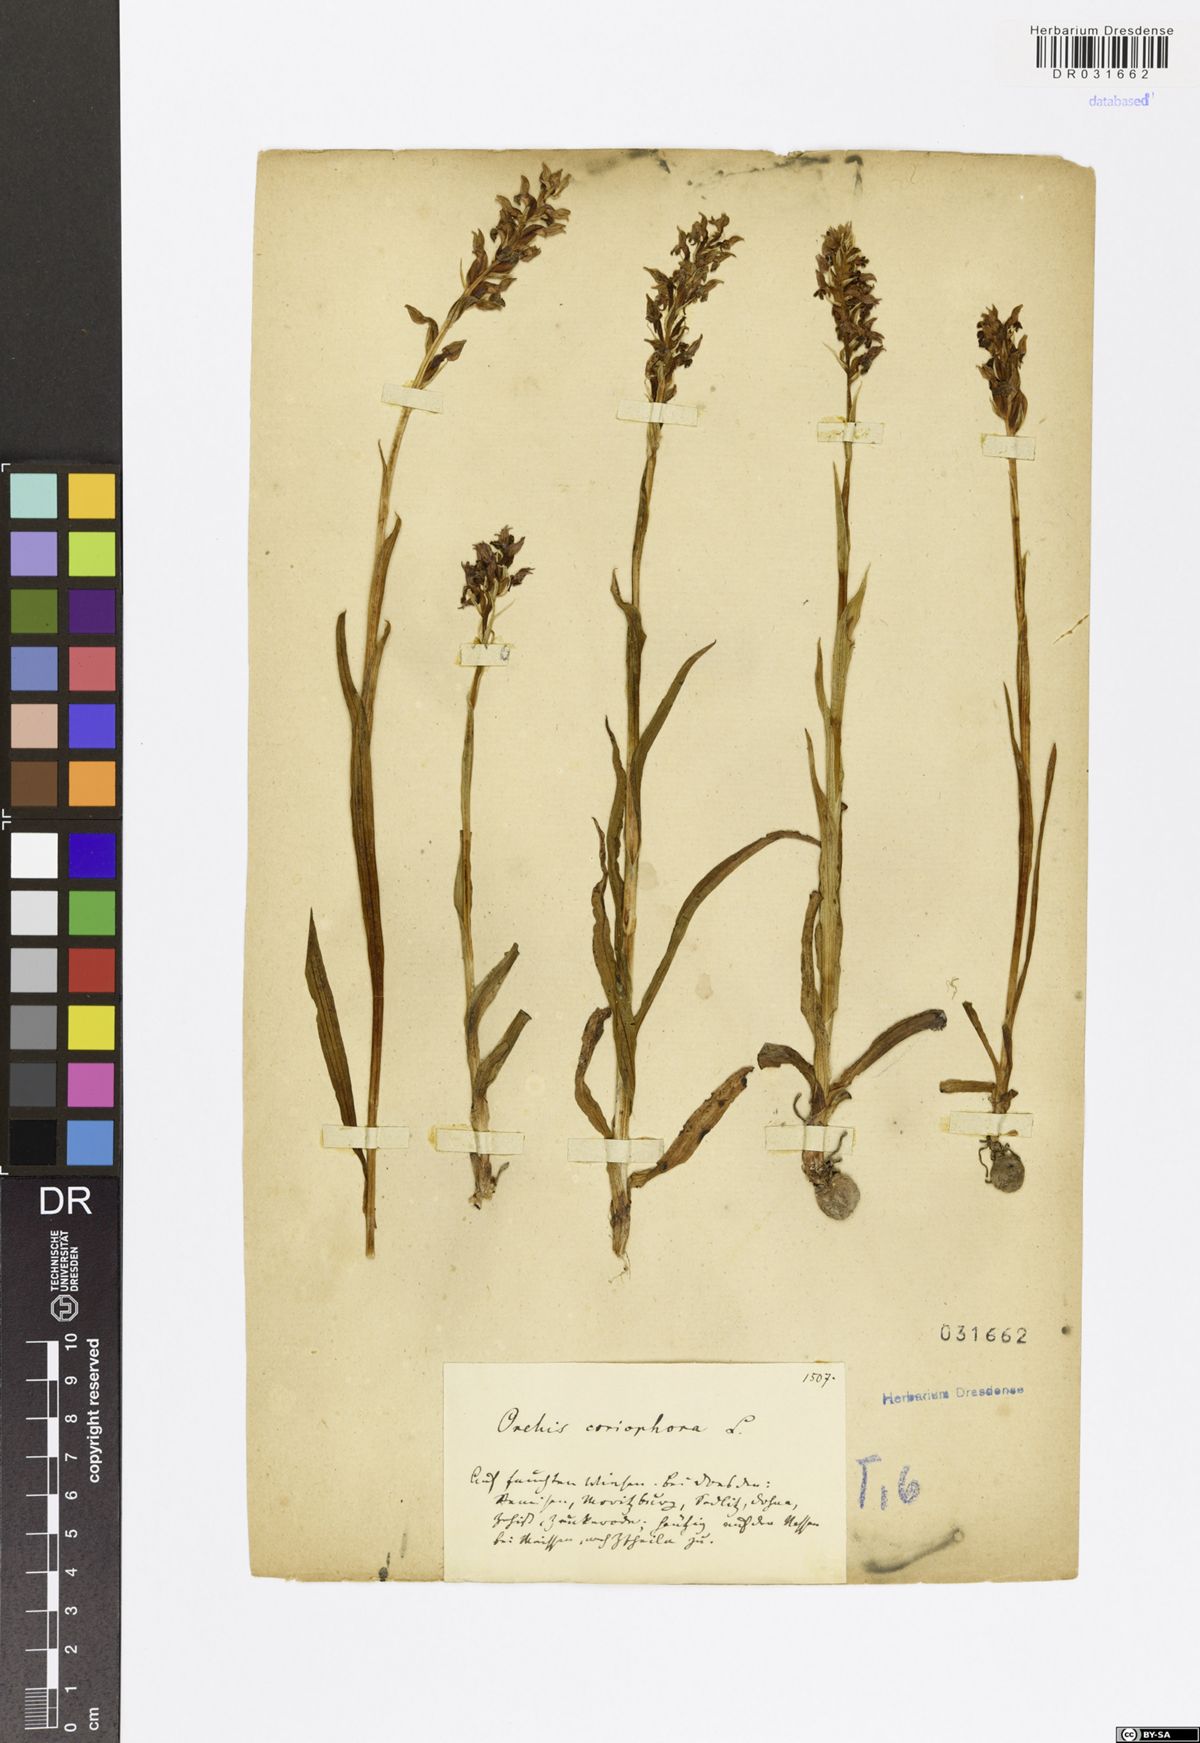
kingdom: Plantae
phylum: Tracheophyta
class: Liliopsida
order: Asparagales
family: Orchidaceae
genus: Anacamptis
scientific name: Anacamptis coriophora
